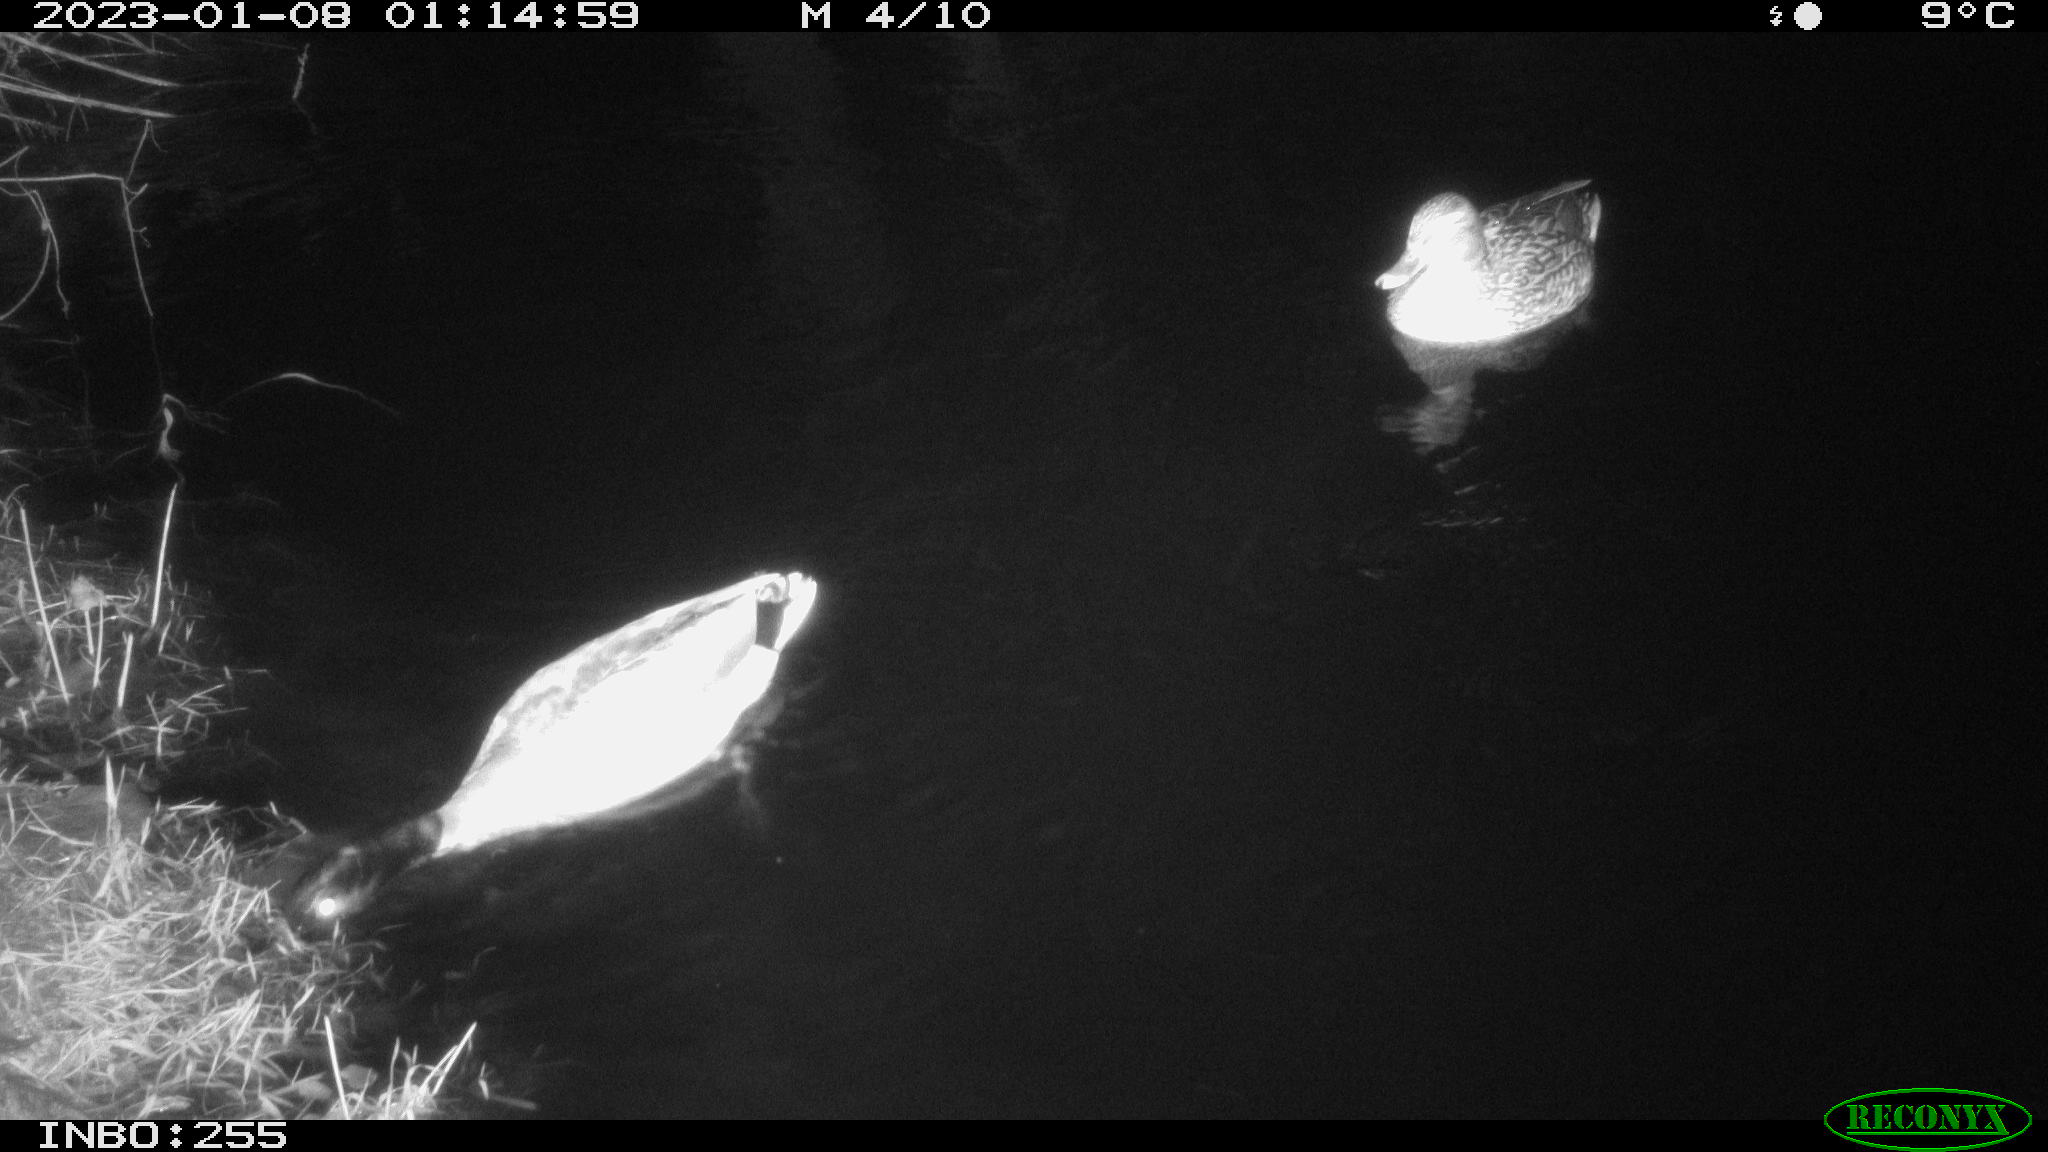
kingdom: Animalia
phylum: Chordata
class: Aves
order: Anseriformes
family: Anatidae
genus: Anas
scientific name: Anas
